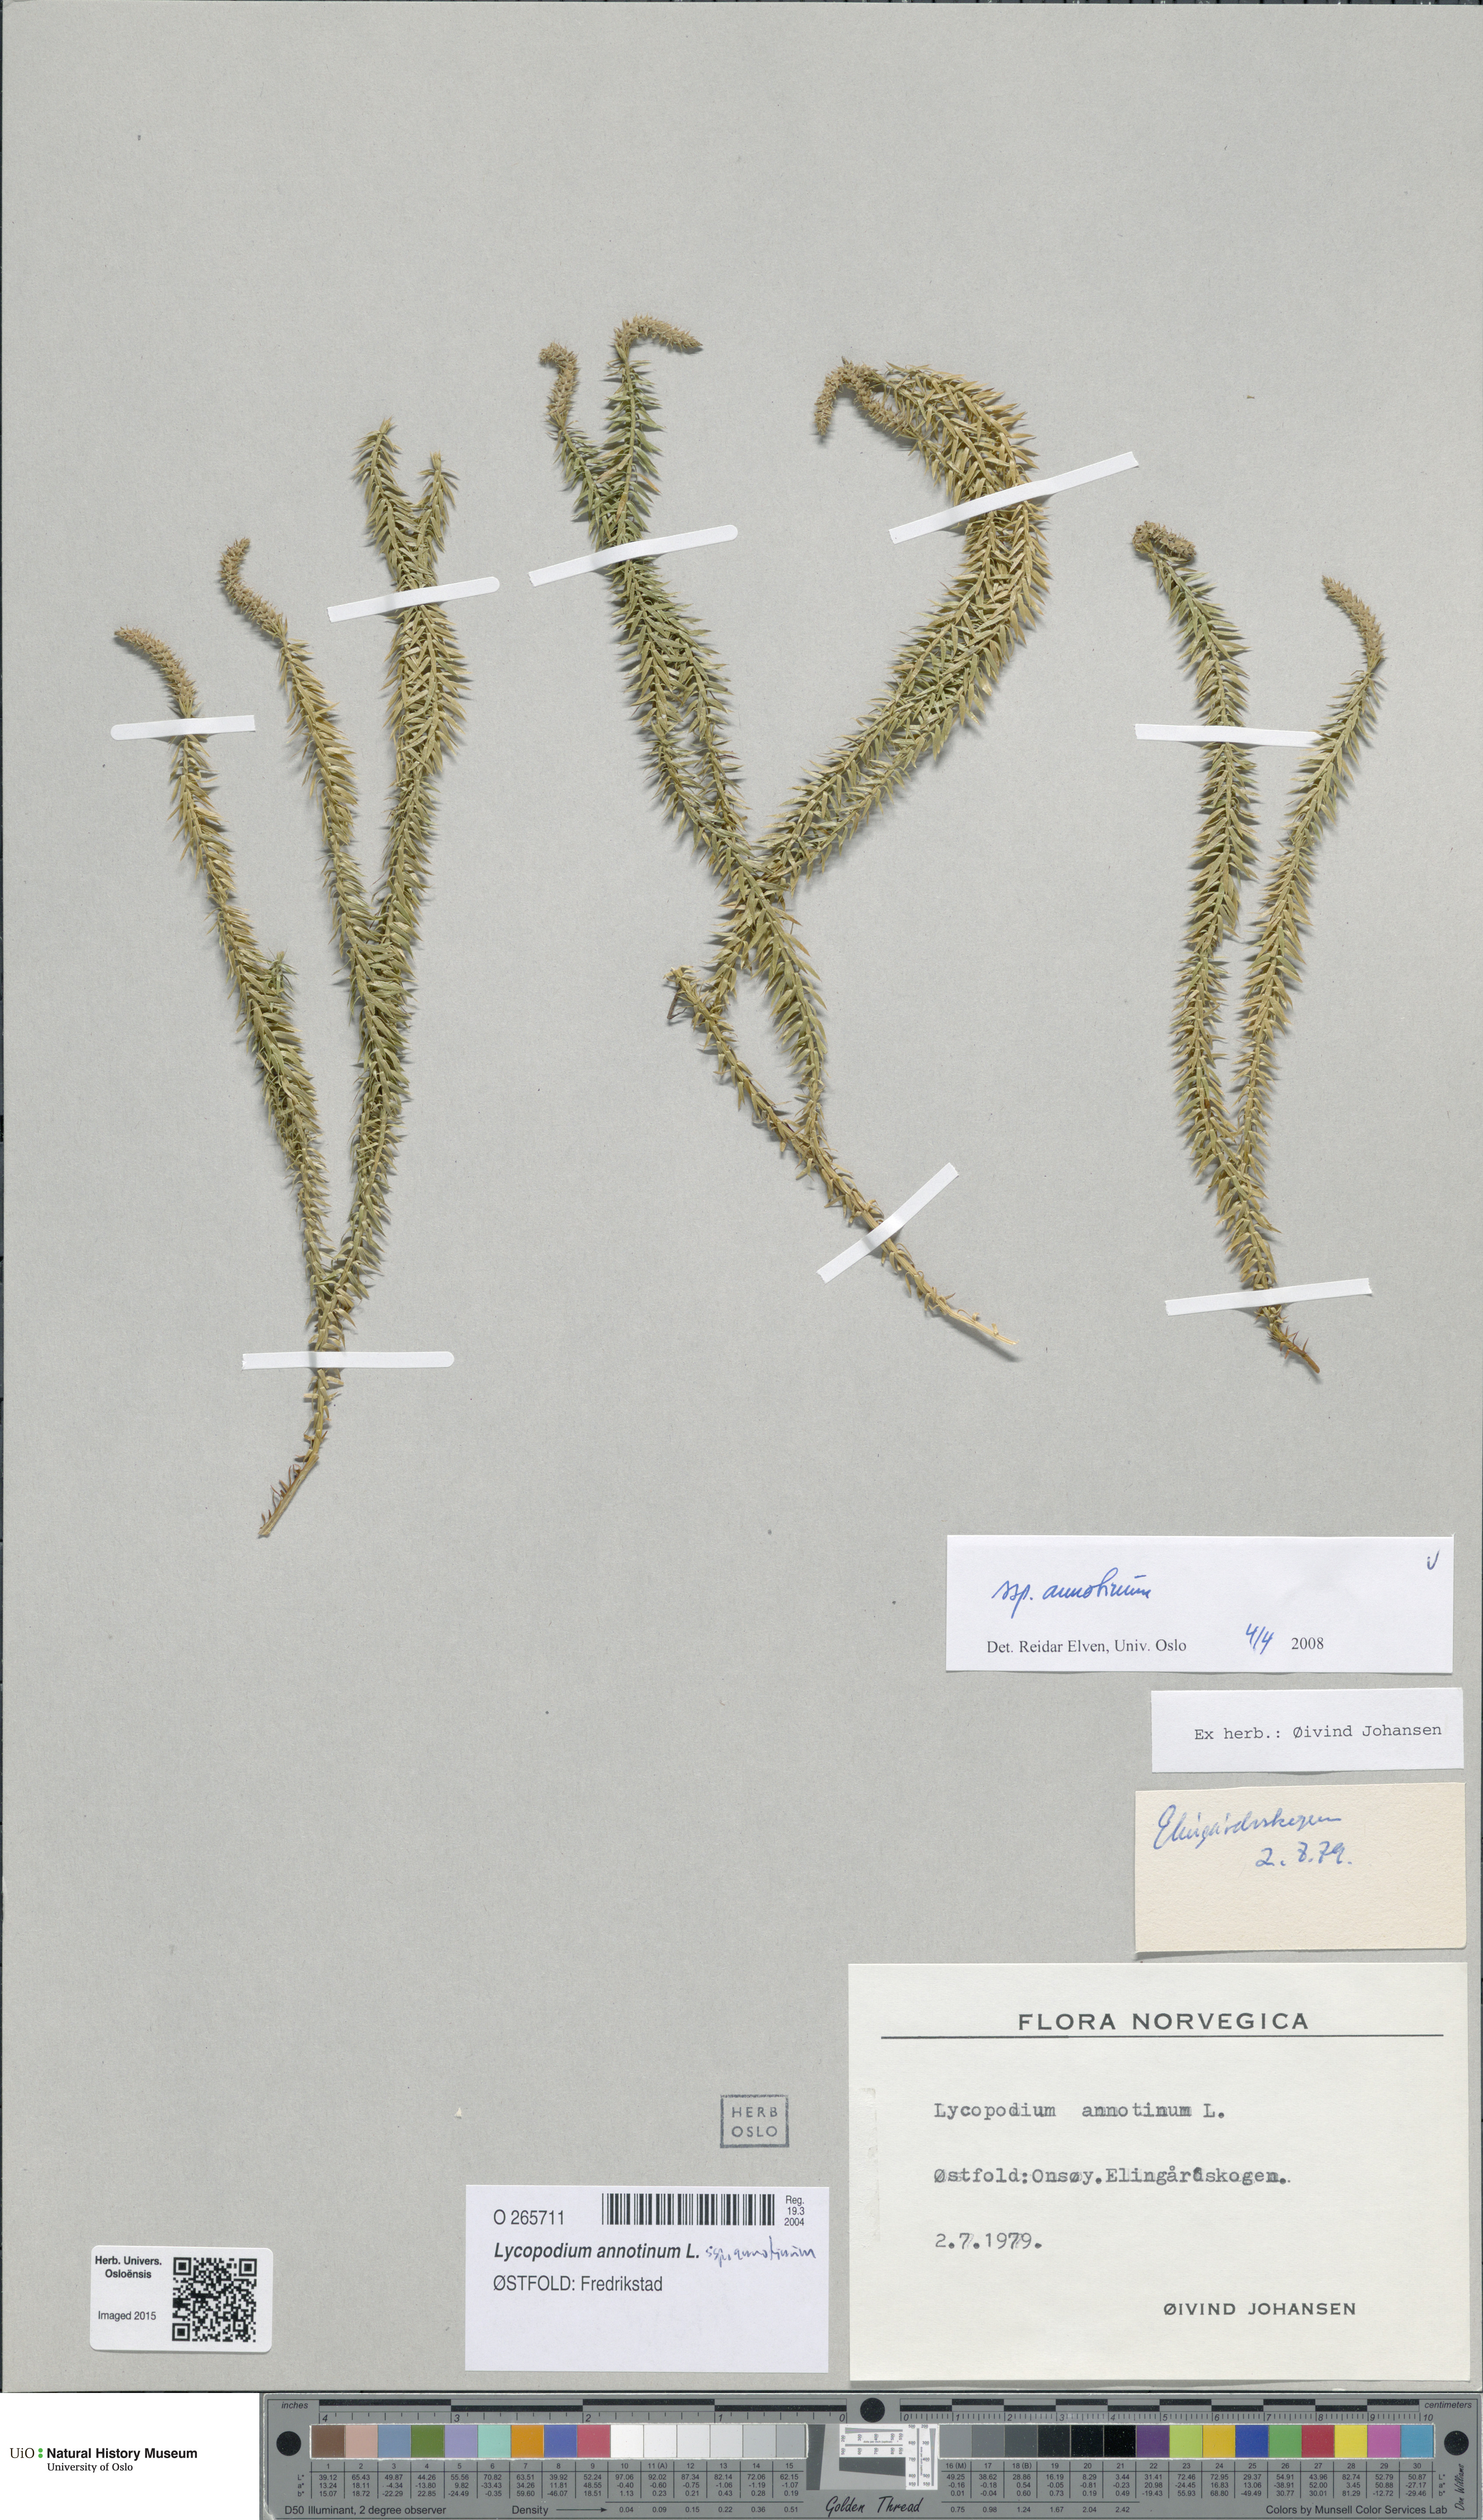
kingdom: Plantae
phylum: Tracheophyta
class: Lycopodiopsida
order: Lycopodiales
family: Lycopodiaceae
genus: Spinulum
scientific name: Spinulum annotinum
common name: Interrupted club-moss
